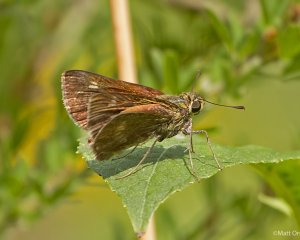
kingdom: Animalia
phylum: Arthropoda
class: Insecta
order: Lepidoptera
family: Hesperiidae
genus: Polites
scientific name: Polites egeremet
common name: Northern Broken-Dash
